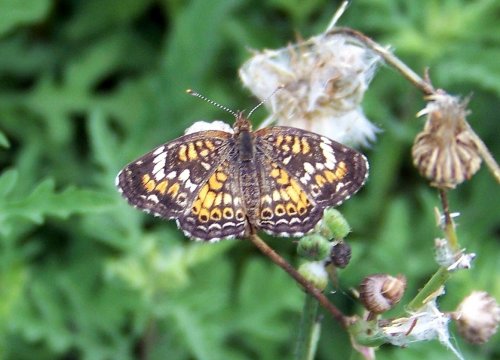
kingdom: Animalia
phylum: Arthropoda
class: Insecta
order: Lepidoptera
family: Nymphalidae
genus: Phyciodes
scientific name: Phyciodes phaon
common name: Phaon Crescent
